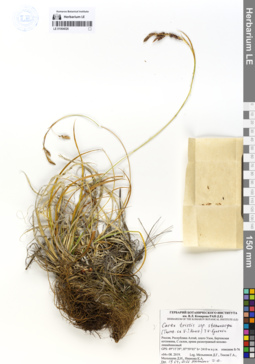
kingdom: Plantae
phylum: Tracheophyta
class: Liliopsida
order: Poales
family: Cyperaceae
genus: Carex
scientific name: Carex stenocarpa
